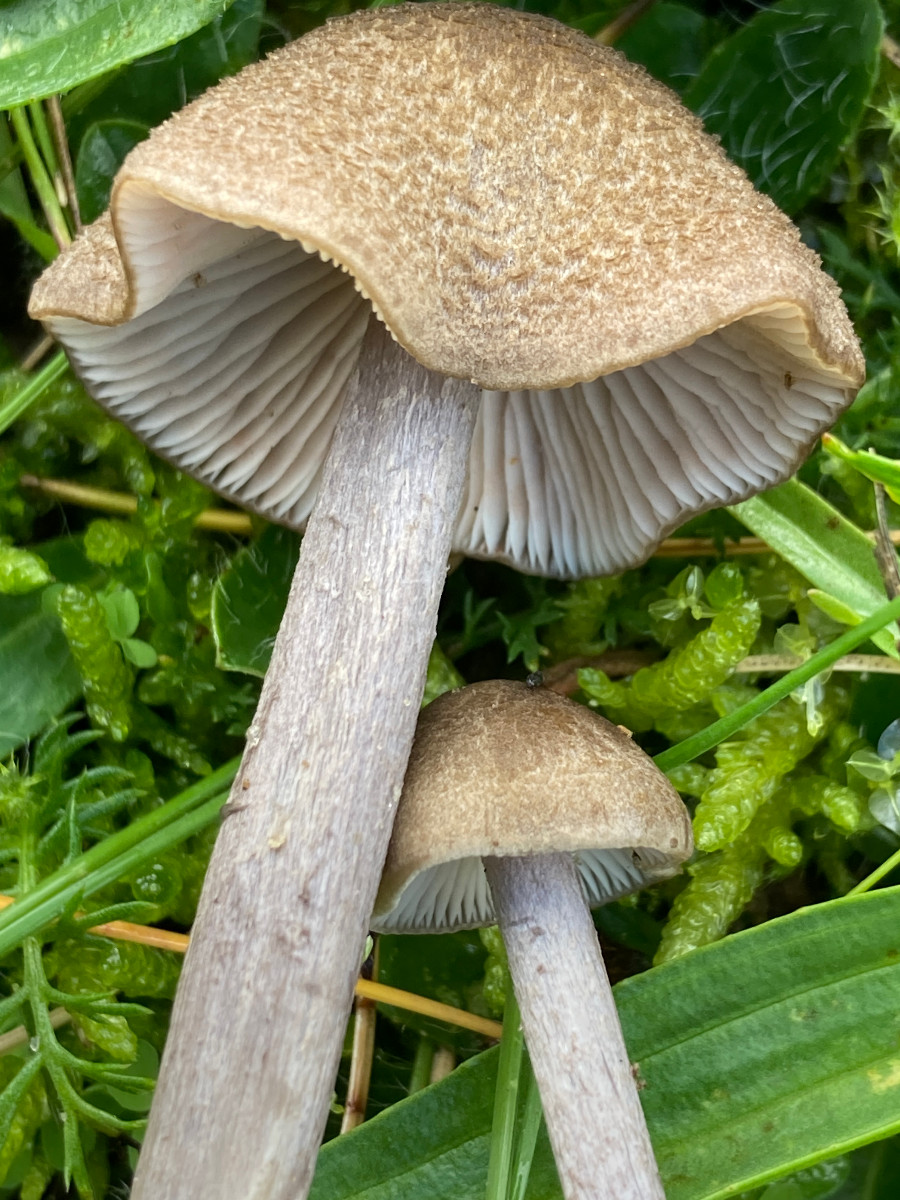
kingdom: Fungi
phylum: Basidiomycota
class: Agaricomycetes
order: Agaricales
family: Entolomataceae
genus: Entoloma
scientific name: Entoloma griseocyaneum
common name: gråblå rødblad
